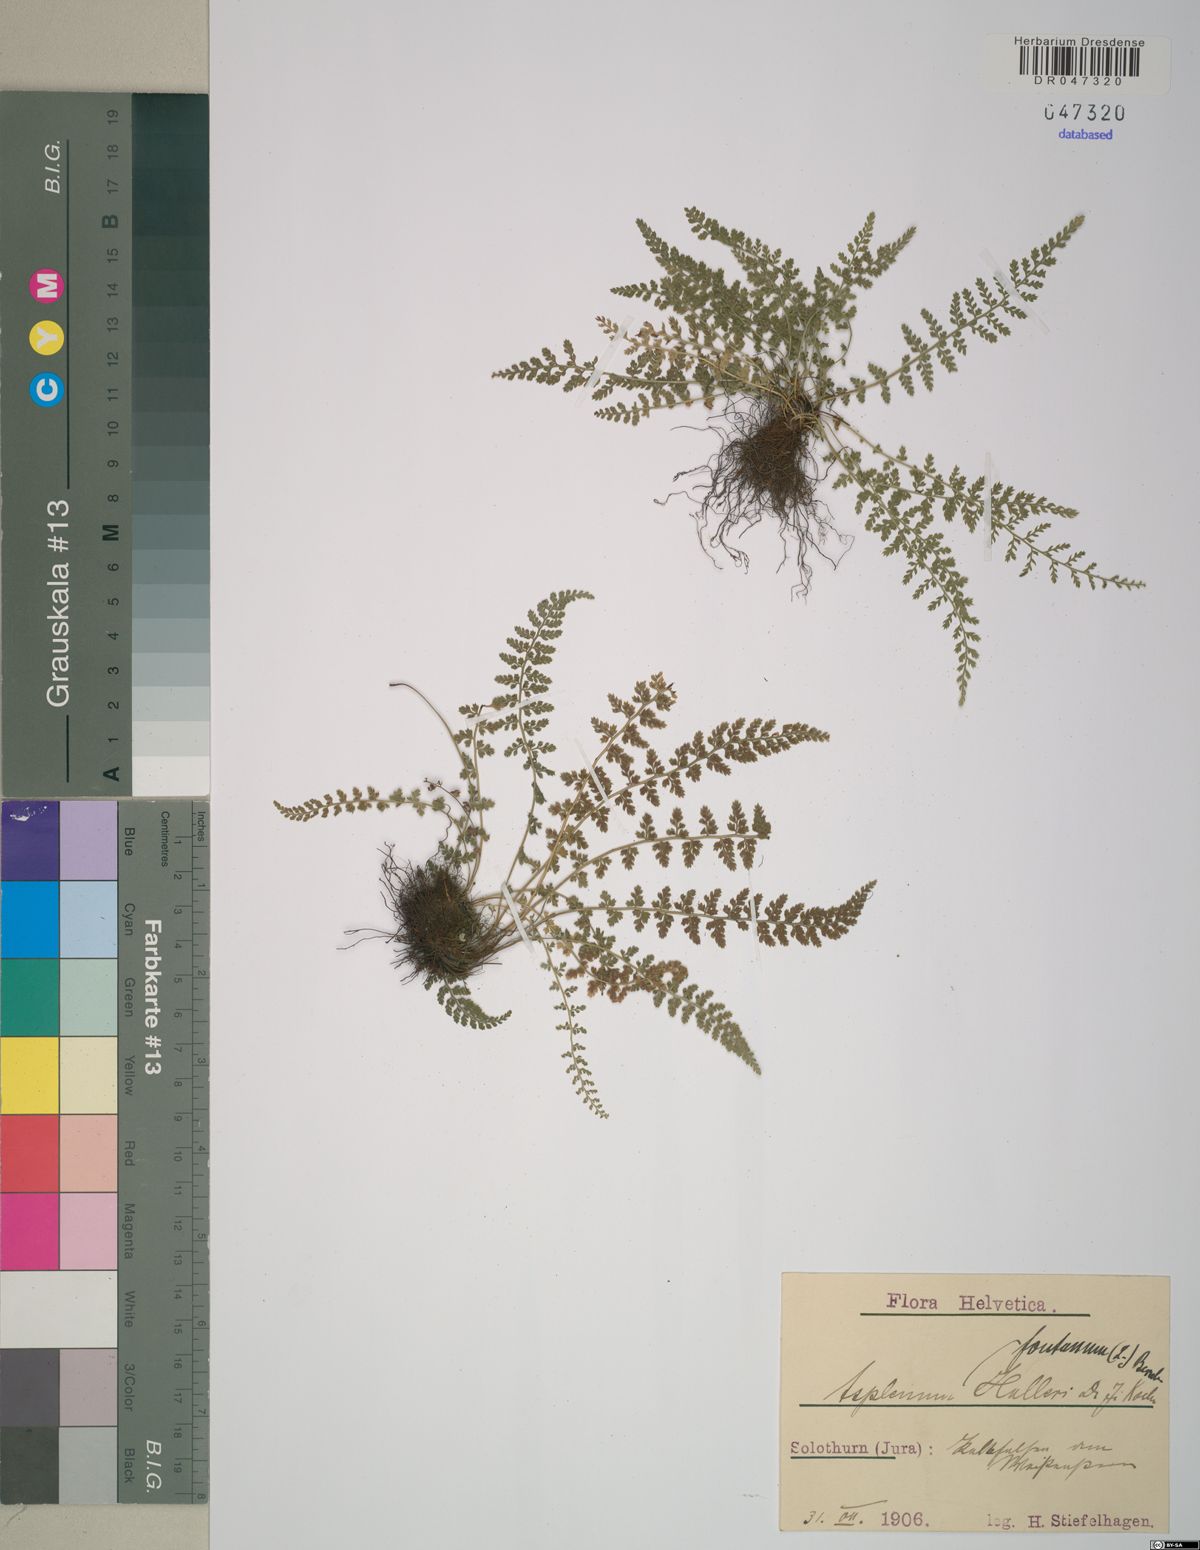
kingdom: Plantae
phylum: Tracheophyta
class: Polypodiopsida
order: Polypodiales
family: Aspleniaceae
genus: Asplenium
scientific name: Asplenium fontanum
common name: Fountain spleenwort
